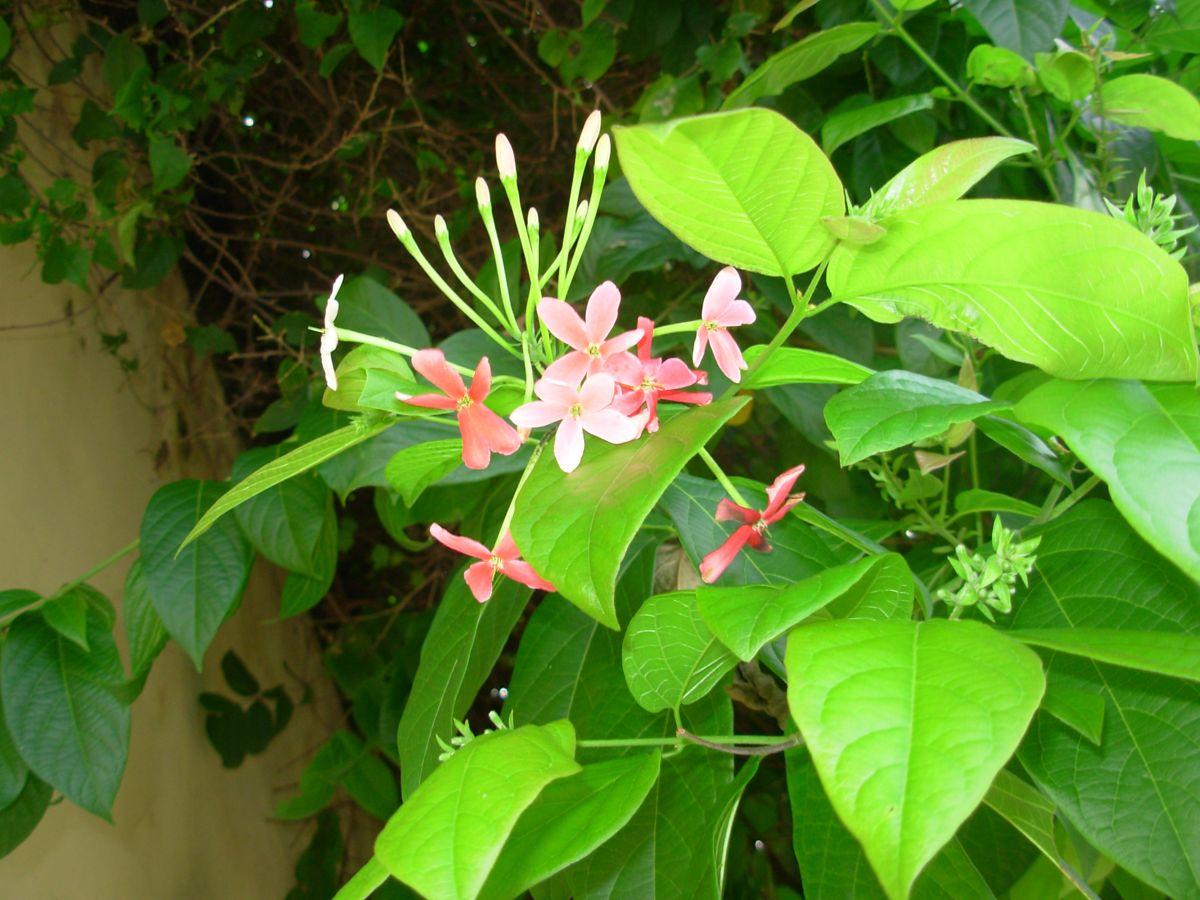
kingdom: Plantae
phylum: Tracheophyta
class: Magnoliopsida
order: Myrtales
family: Combretaceae
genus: Combretum
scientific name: Combretum indicum
